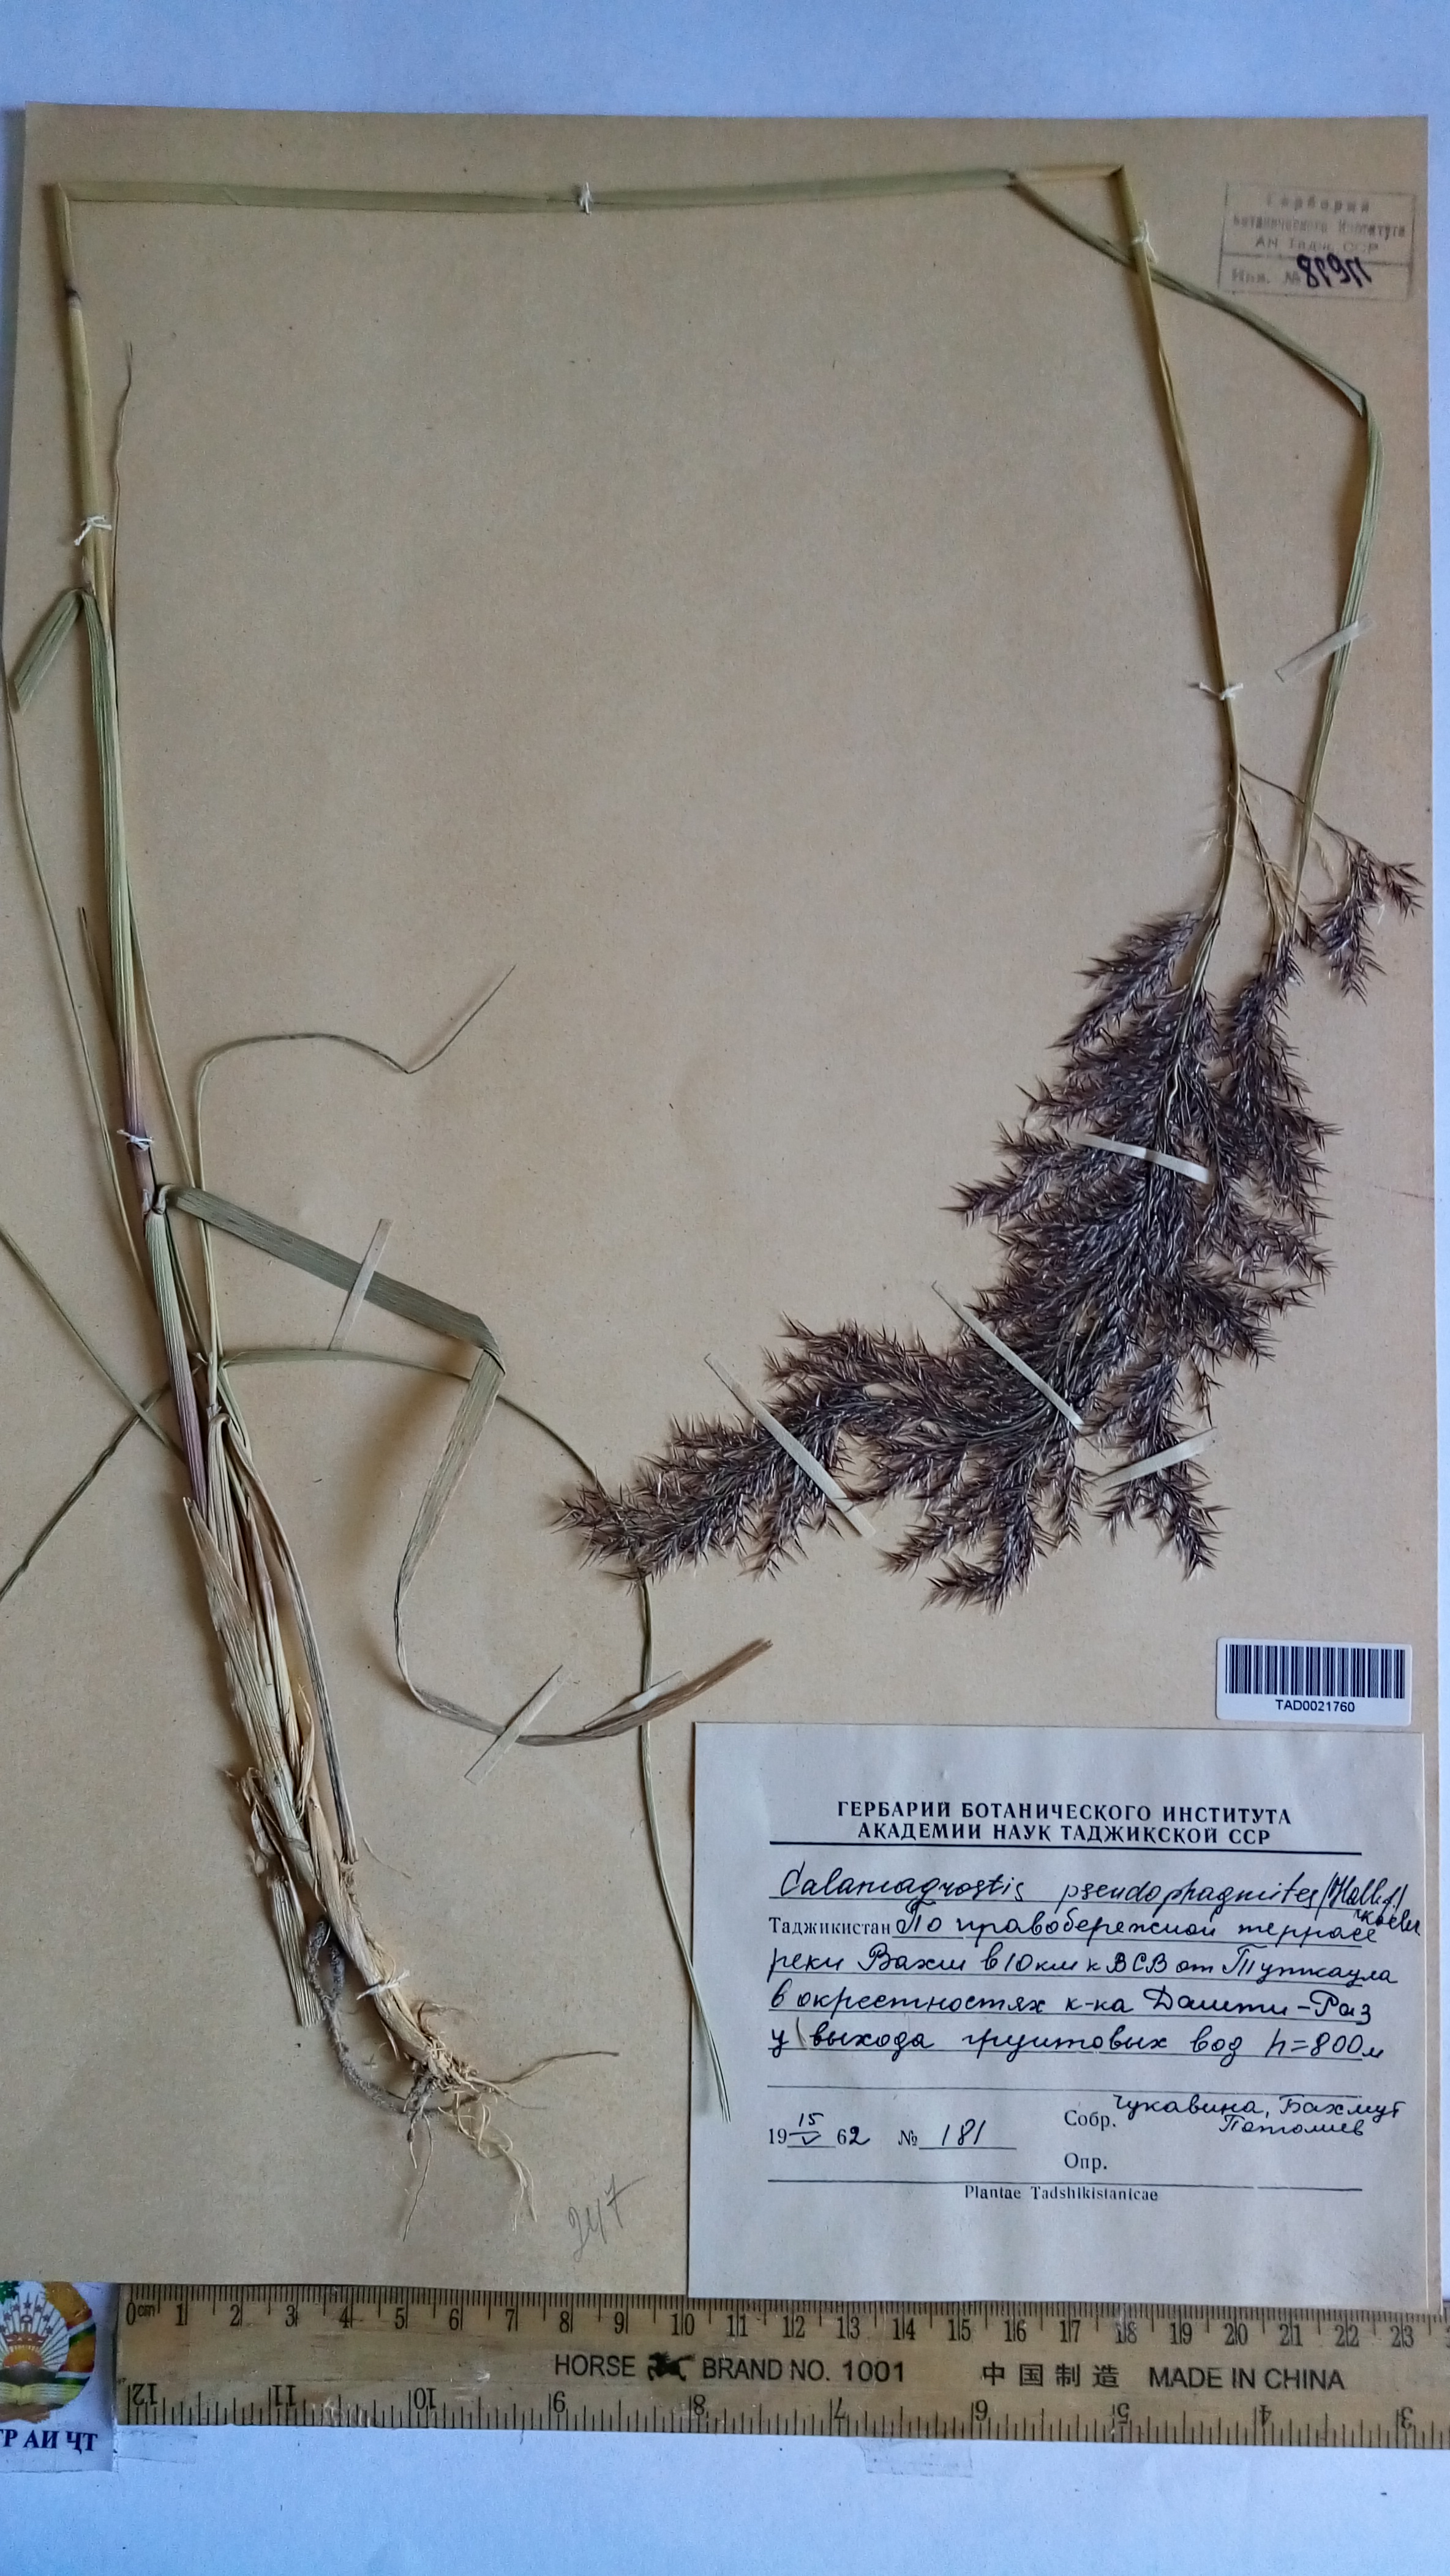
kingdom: Plantae
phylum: Tracheophyta
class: Liliopsida
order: Poales
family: Poaceae
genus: Calamagrostis
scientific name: Calamagrostis pseudophragmites
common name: Coastal small-reed
